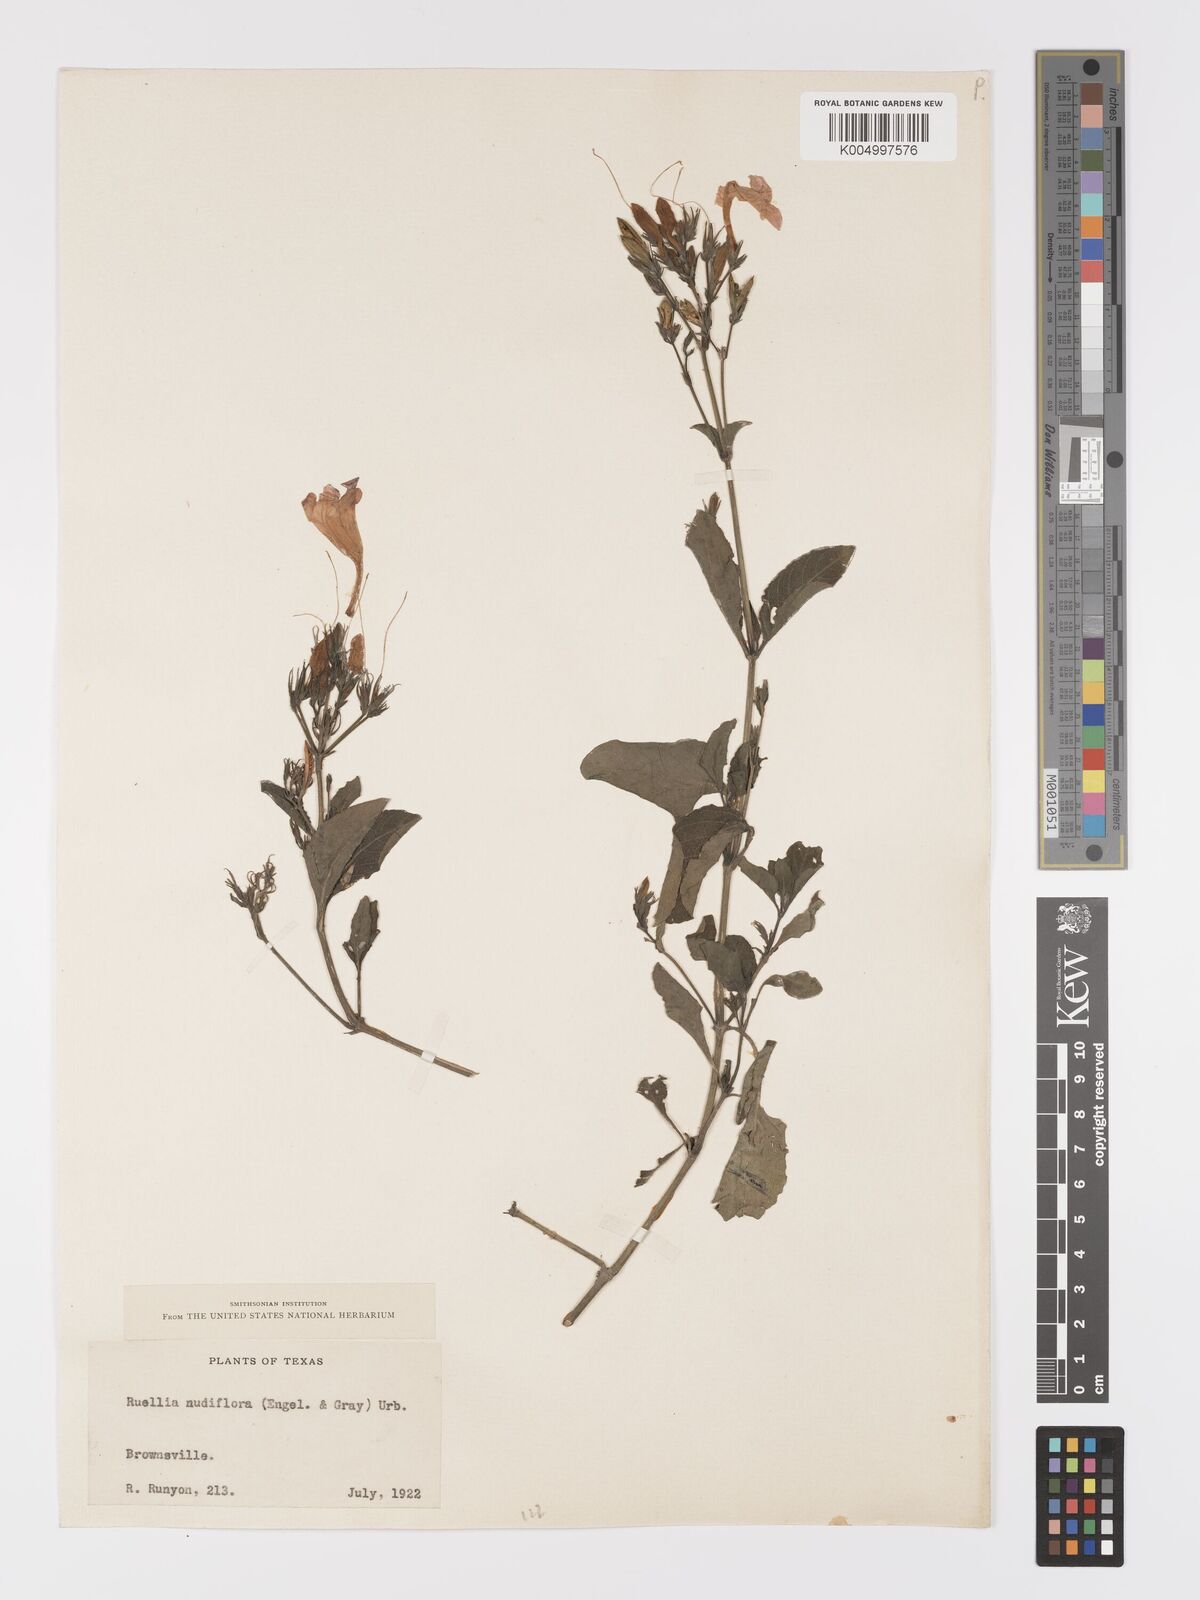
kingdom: Plantae
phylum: Tracheophyta
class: Magnoliopsida
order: Lamiales
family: Acanthaceae
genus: Ruellia
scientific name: Ruellia ciliatiflora
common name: Hairyflower wild petunia
